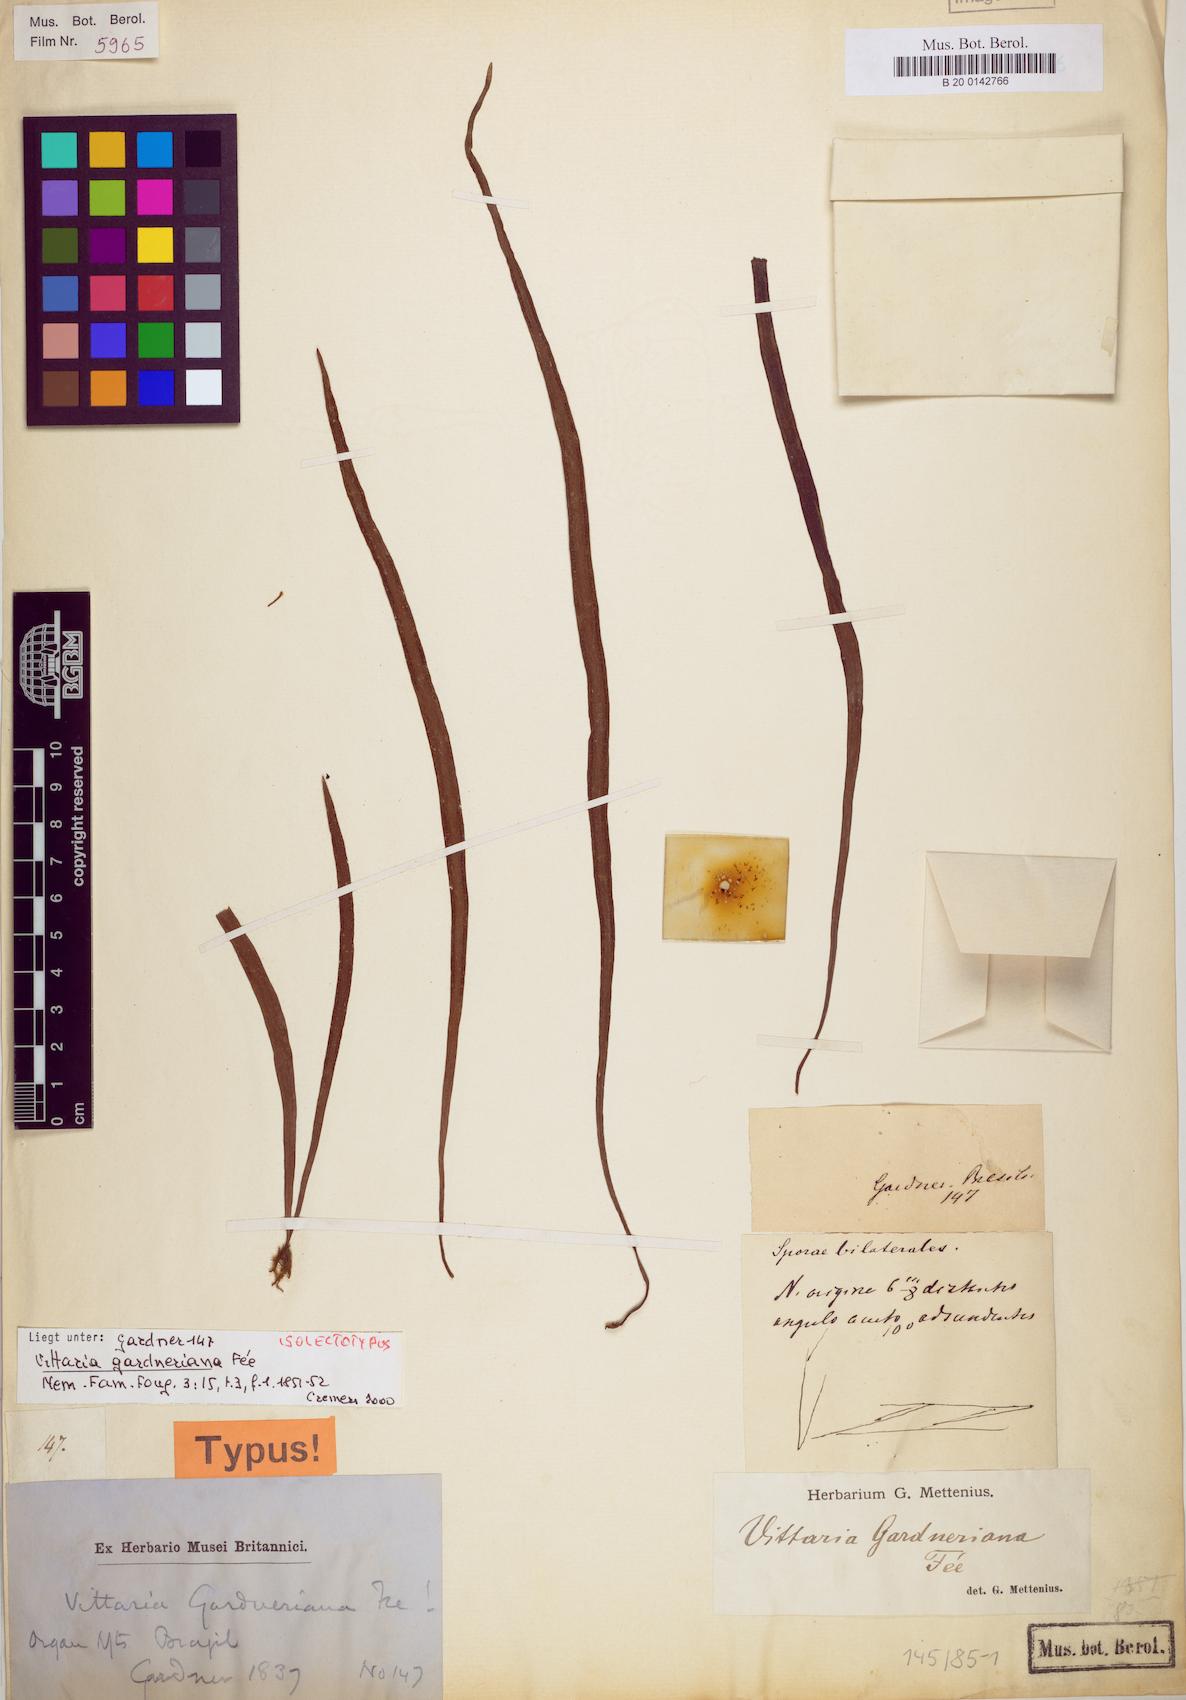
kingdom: Plantae
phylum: Tracheophyta
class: Polypodiopsida
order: Polypodiales
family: Pteridaceae
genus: Radiovittaria
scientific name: Radiovittaria gardneriana
